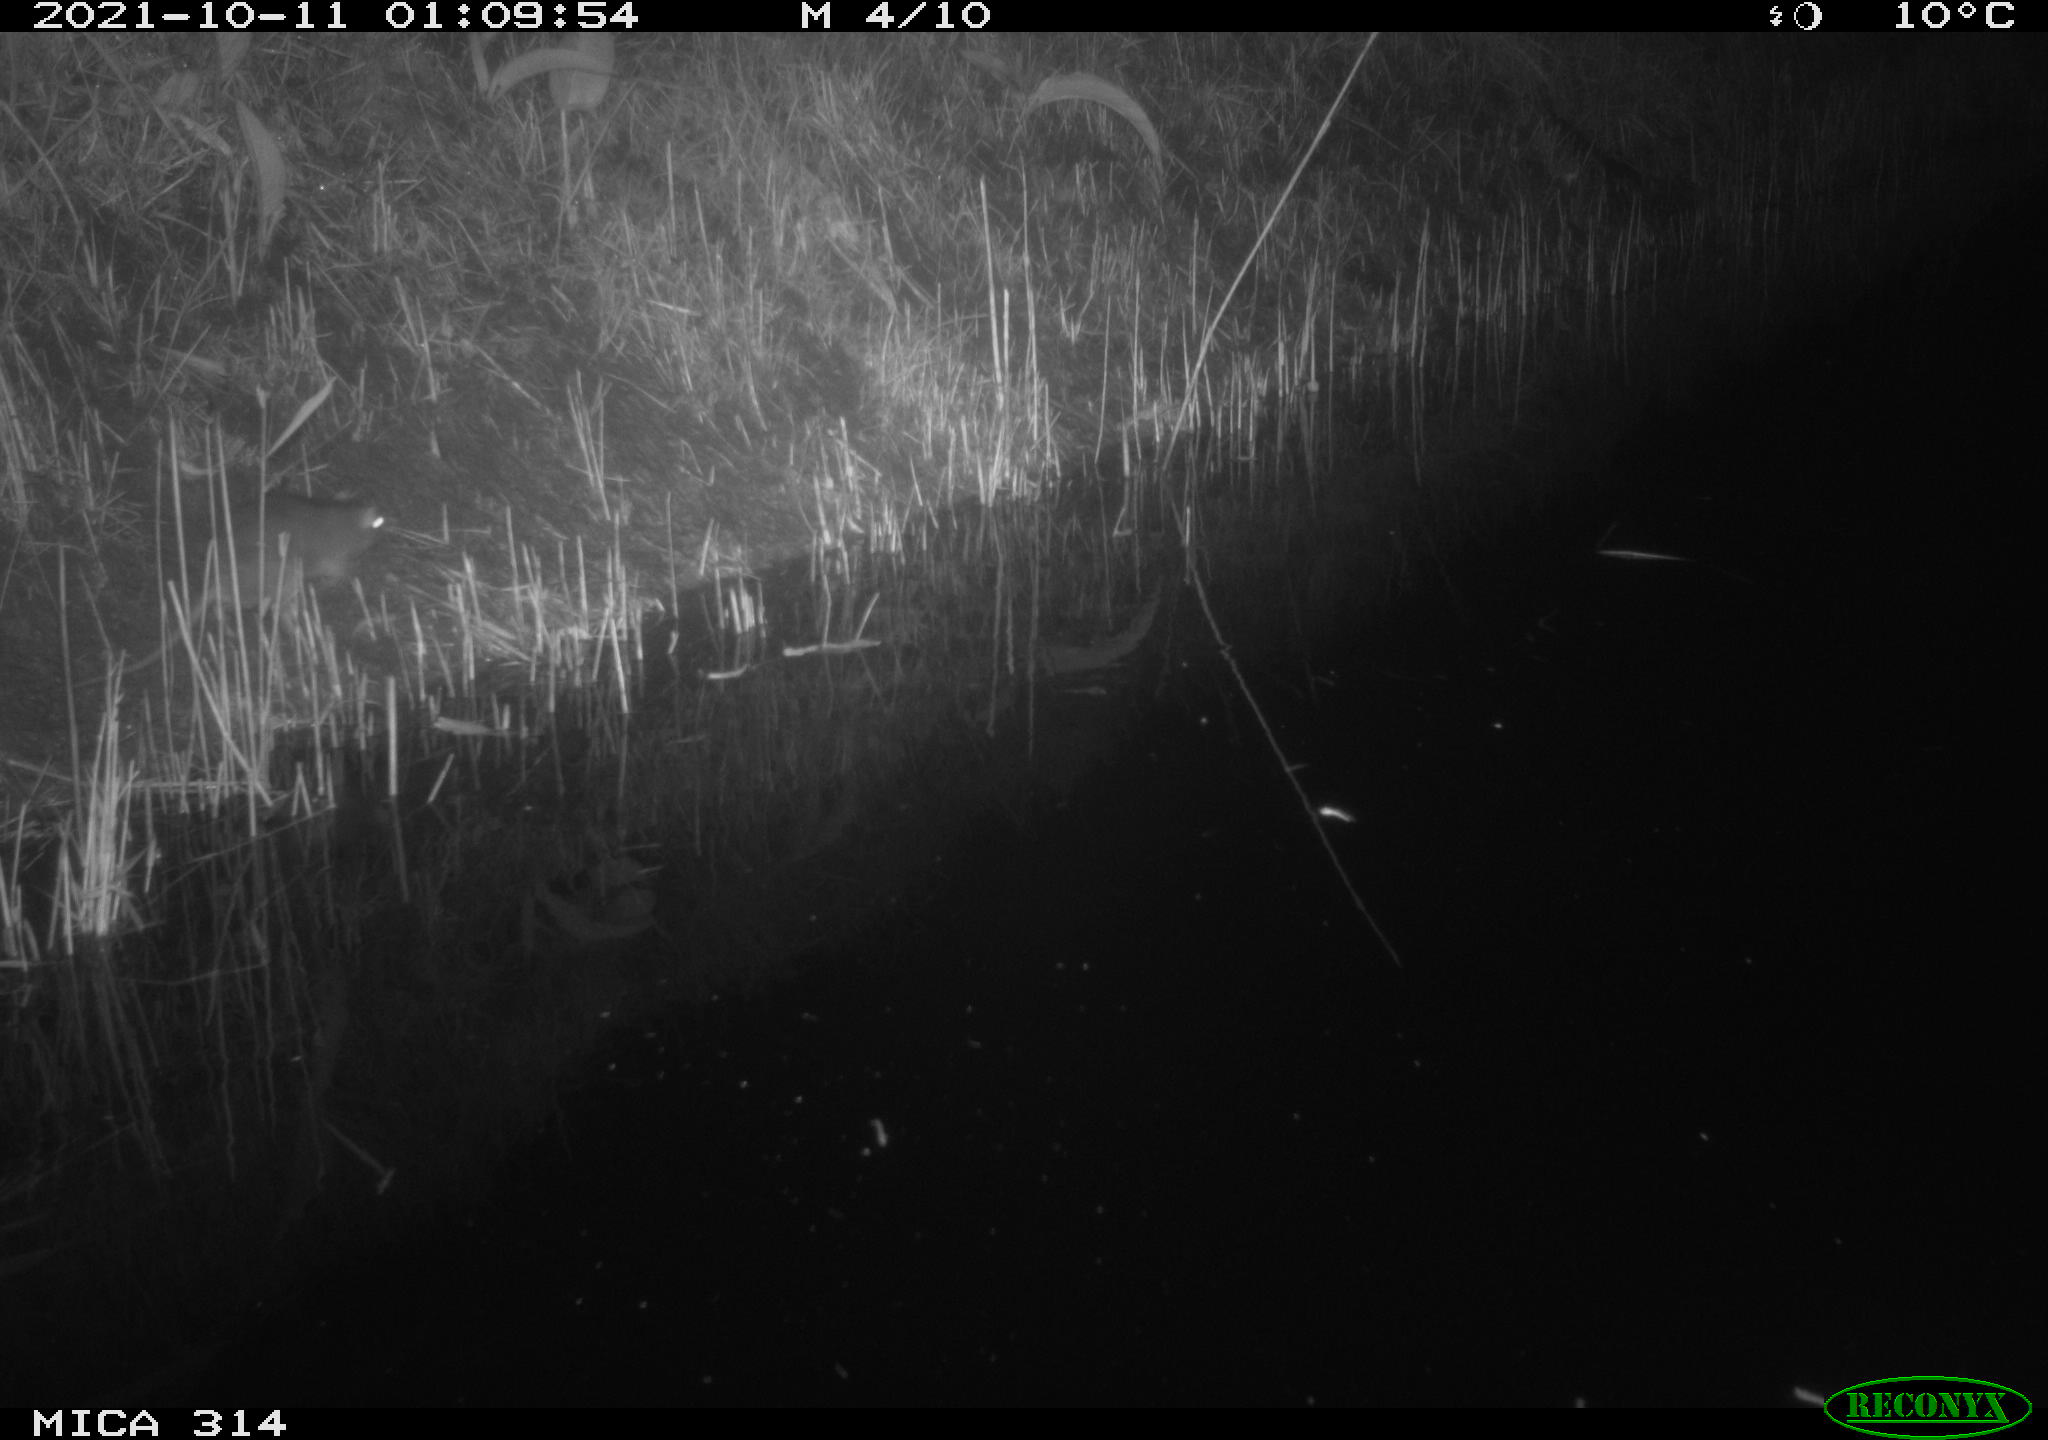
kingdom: Animalia
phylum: Chordata
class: Mammalia
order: Rodentia
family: Muridae
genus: Rattus
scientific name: Rattus norvegicus
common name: Brown rat
